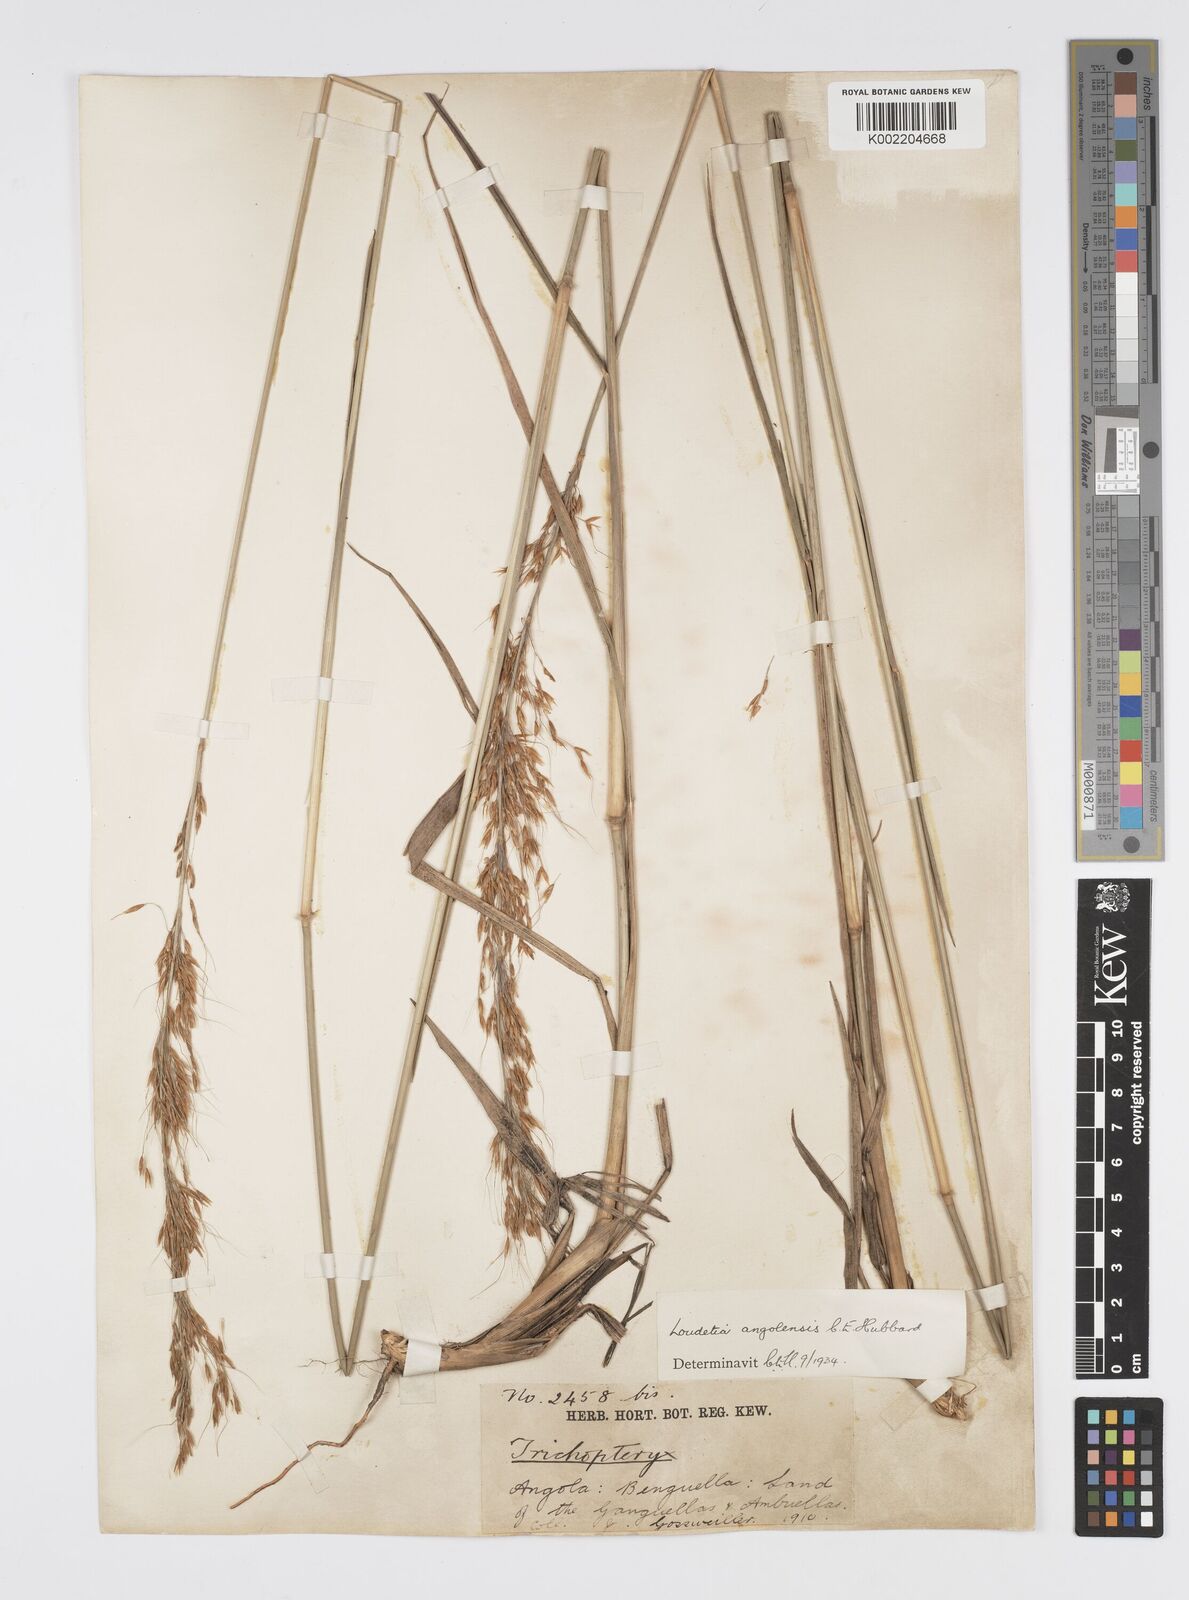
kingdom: Plantae
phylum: Tracheophyta
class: Liliopsida
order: Poales
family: Poaceae
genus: Loudetia
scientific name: Loudetia angolensis
